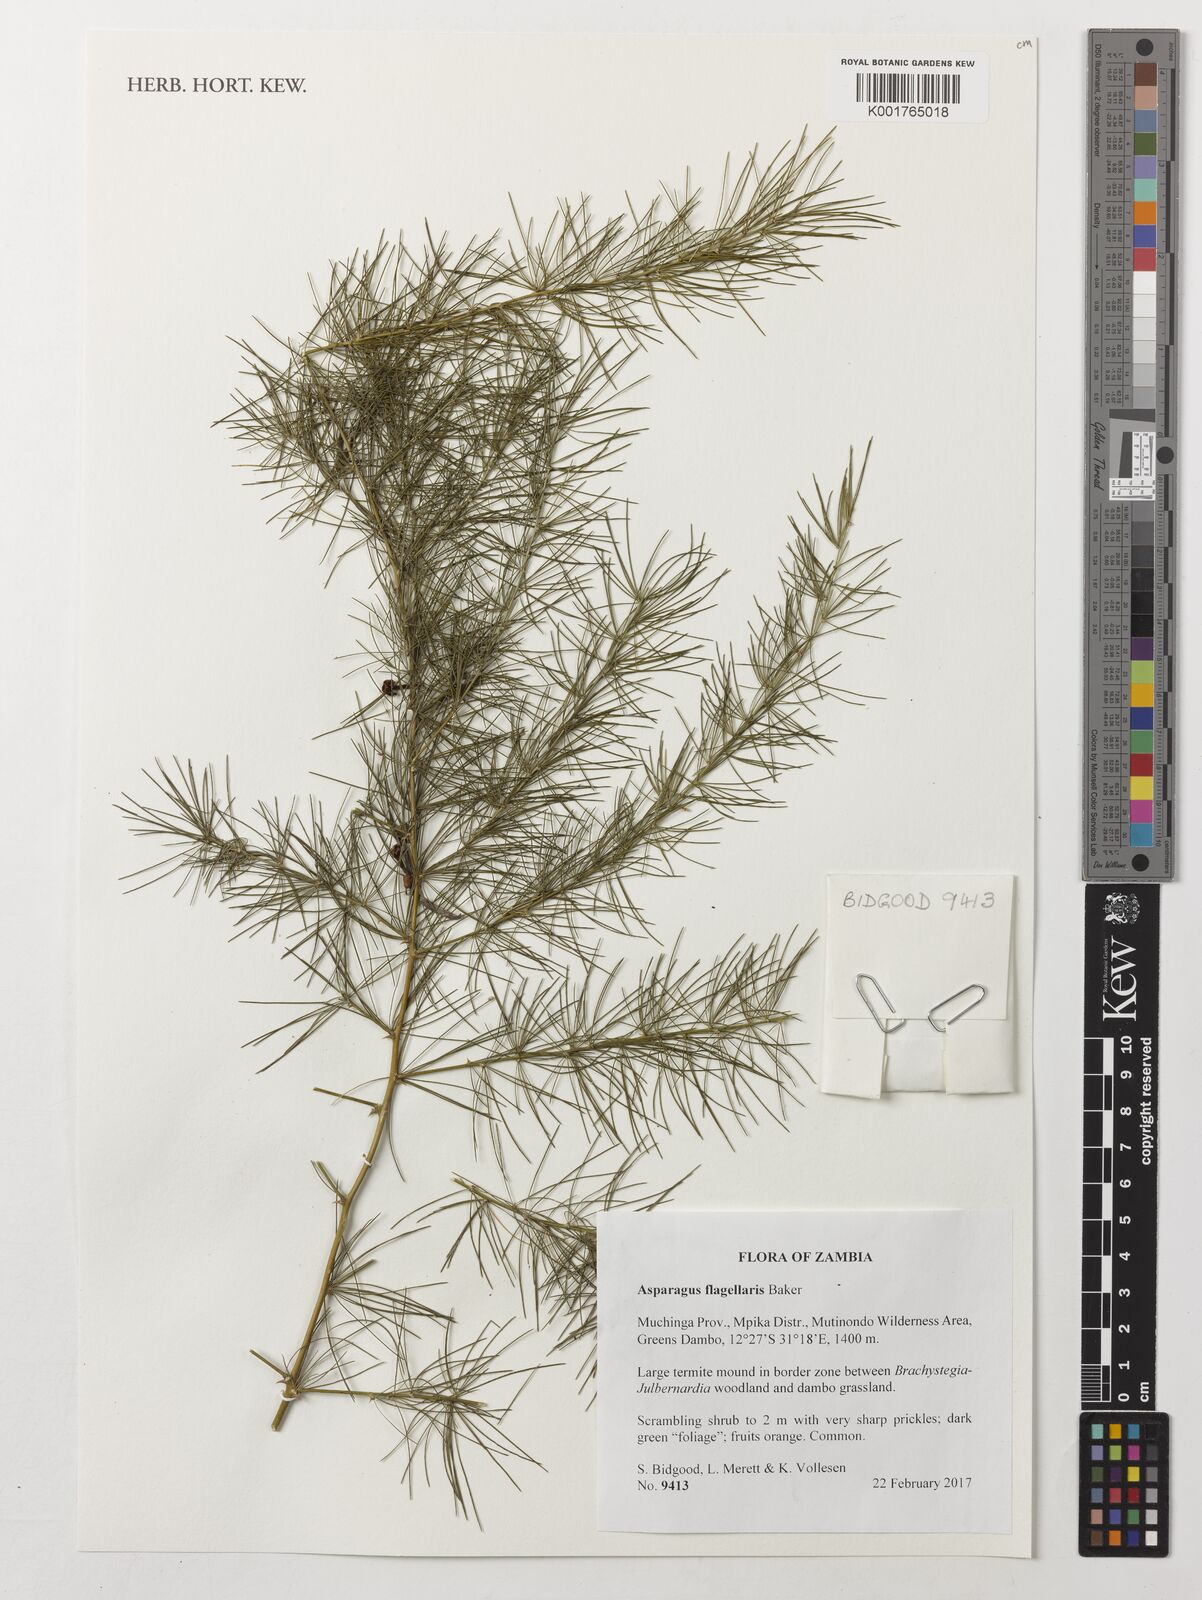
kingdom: Plantae
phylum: Tracheophyta
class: Liliopsida
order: Asparagales
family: Asparagaceae
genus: Asparagus
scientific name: Asparagus flagellaris
